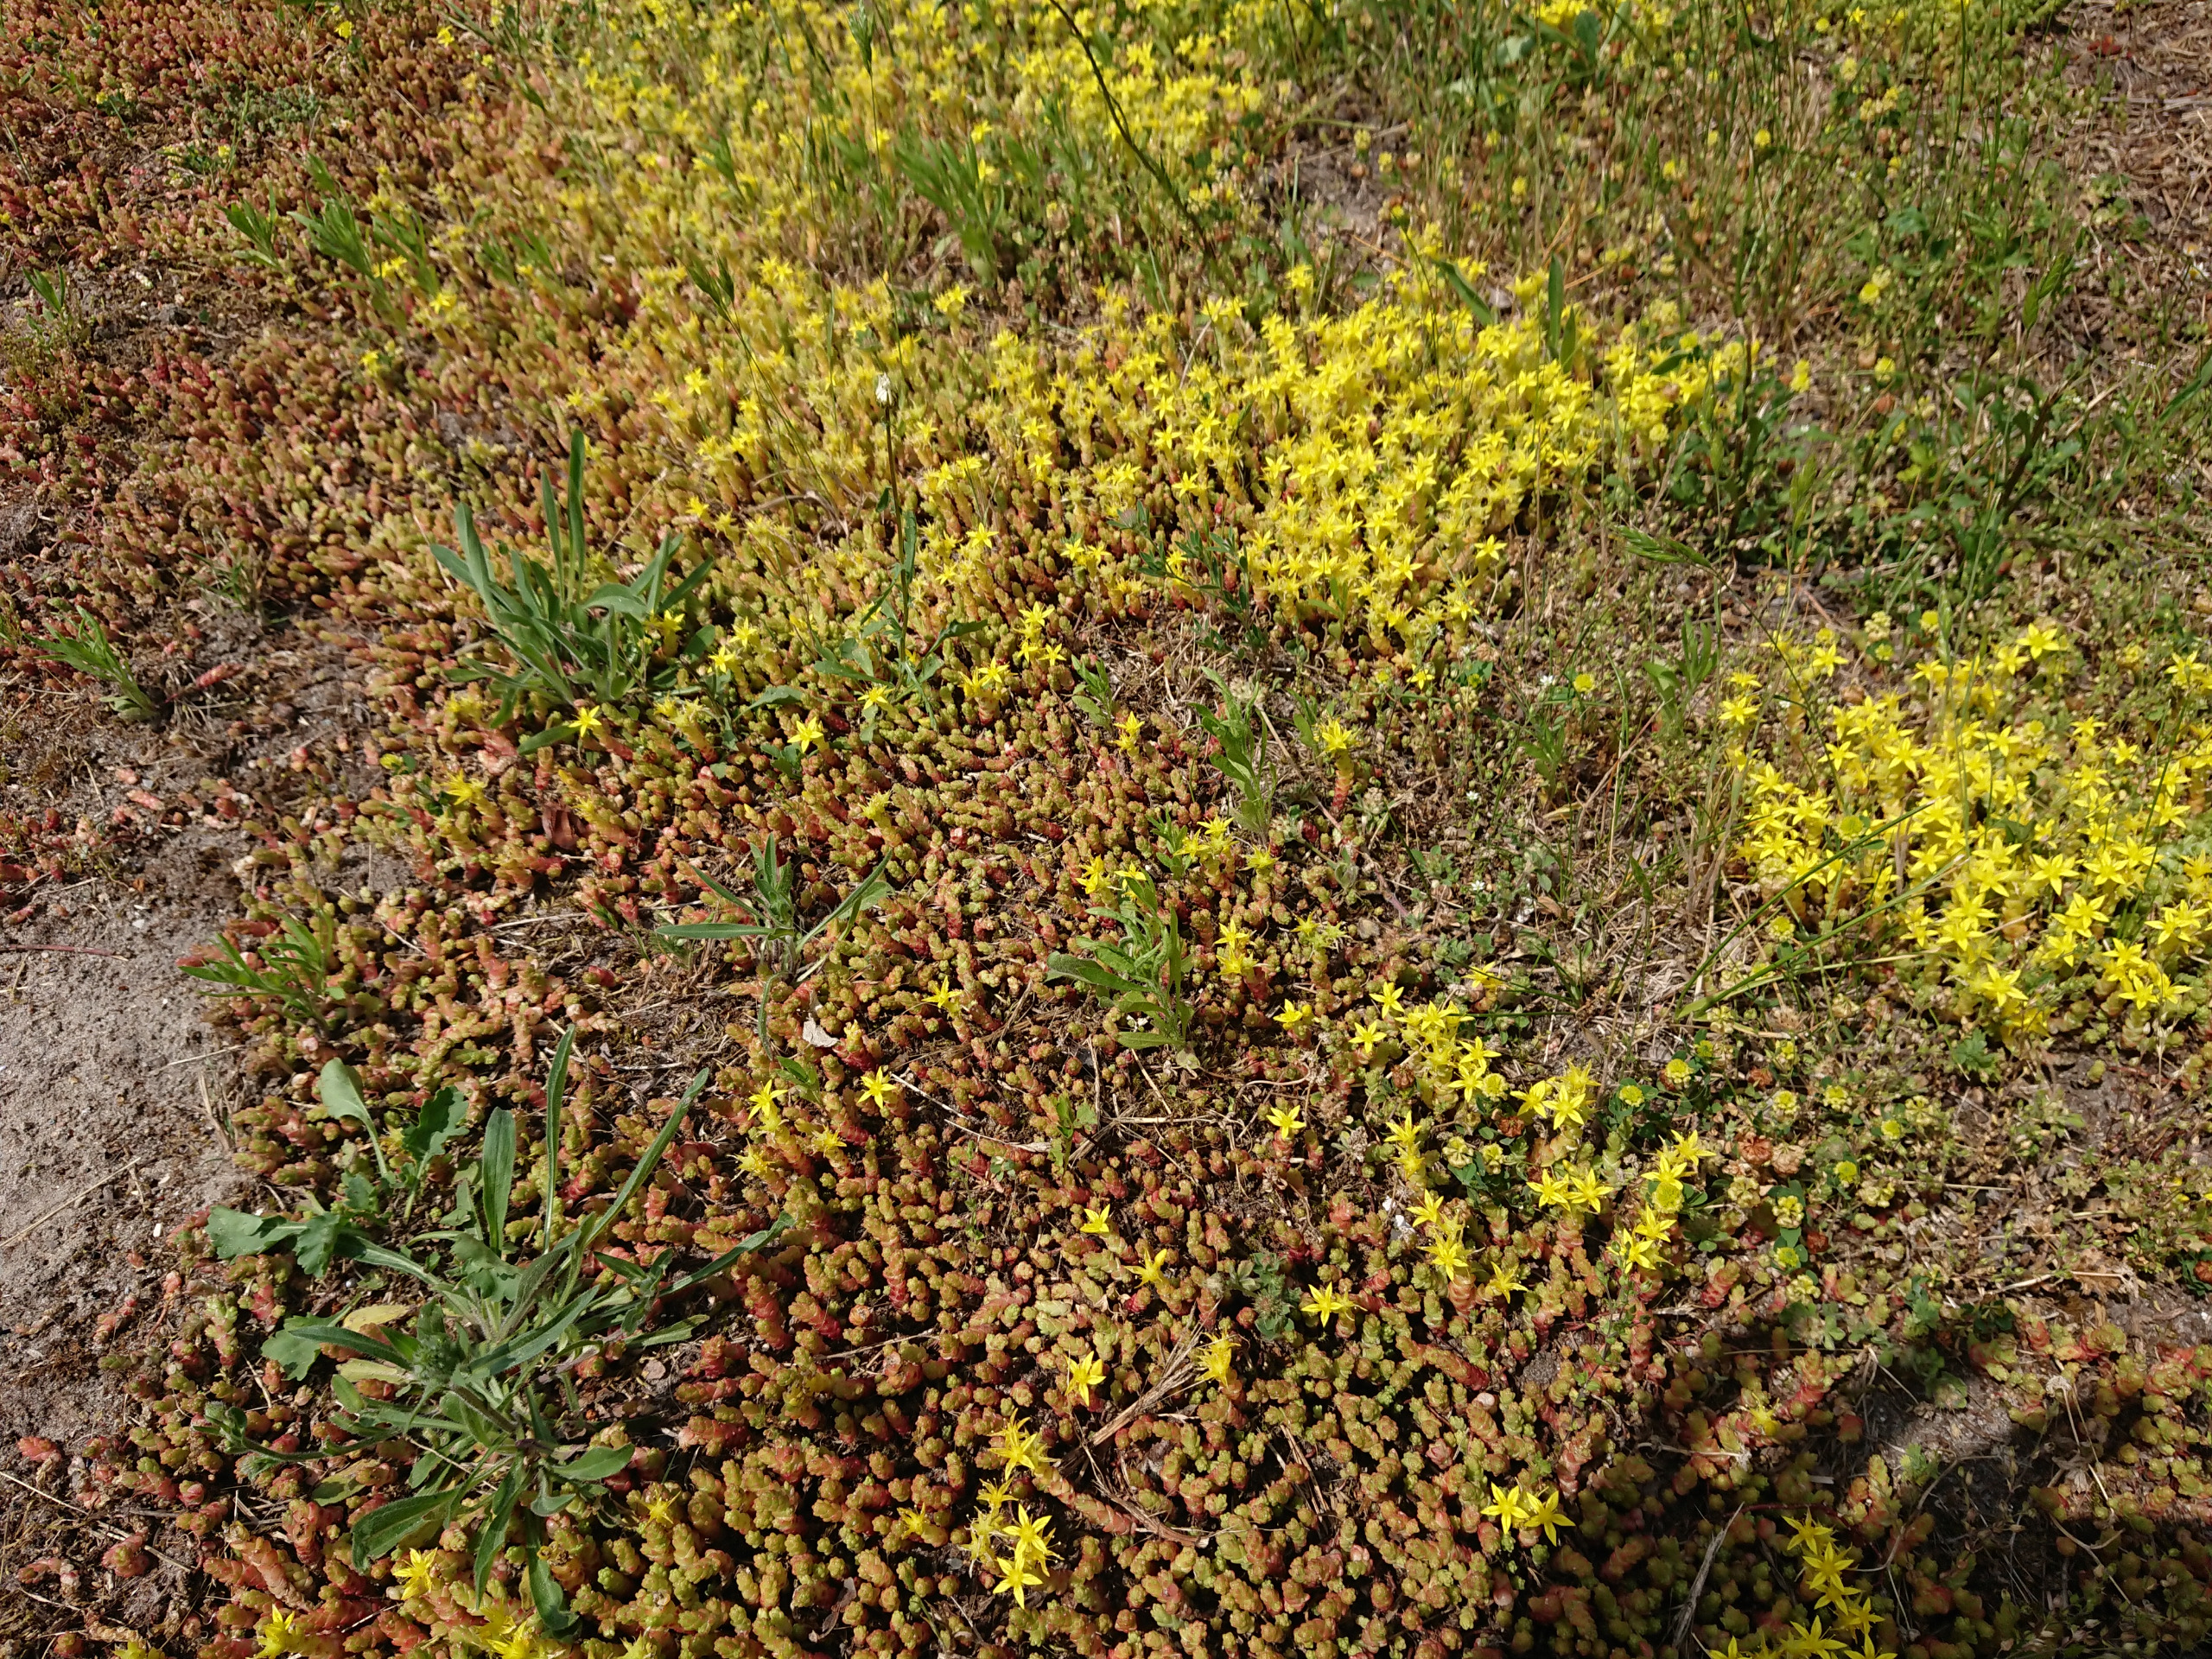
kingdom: Plantae
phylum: Tracheophyta
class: Magnoliopsida
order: Saxifragales
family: Crassulaceae
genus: Sedum
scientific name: Sedum acre
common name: Bidende stenurt
